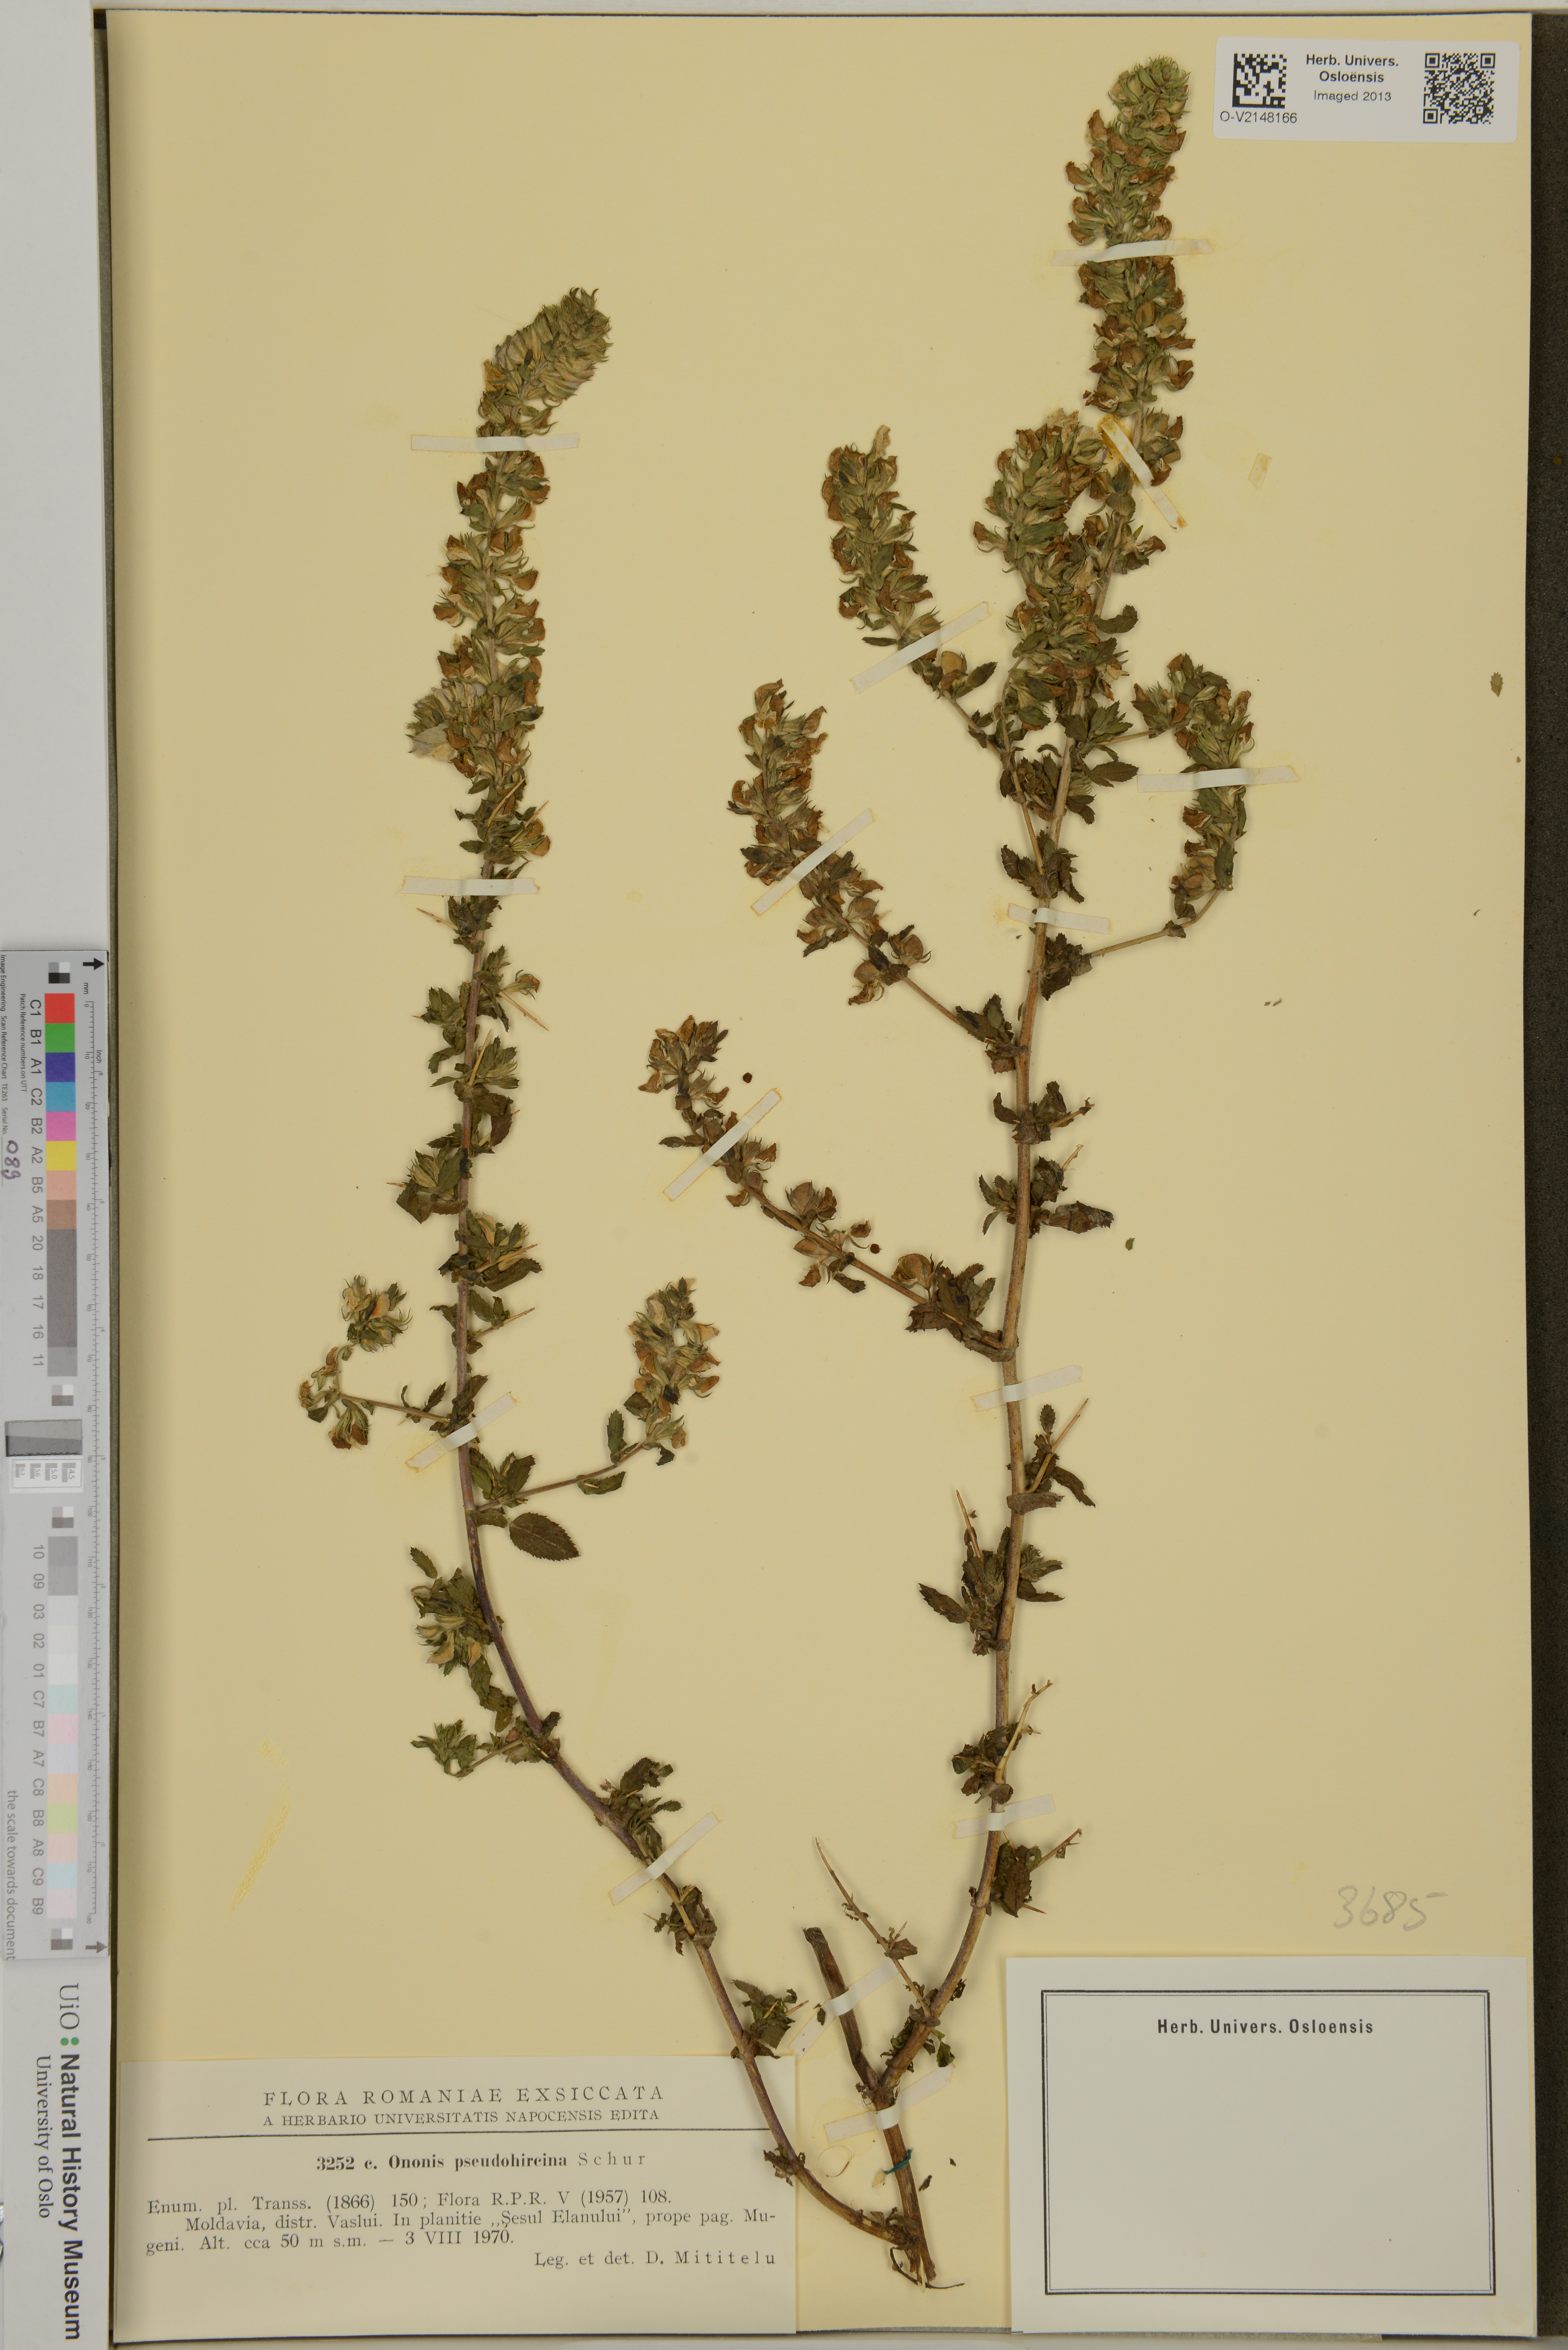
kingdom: Plantae
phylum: Tracheophyta
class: Magnoliopsida
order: Fabales
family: Fabaceae
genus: Ononis
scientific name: Ononis spinosa
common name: Spiny restharrow
